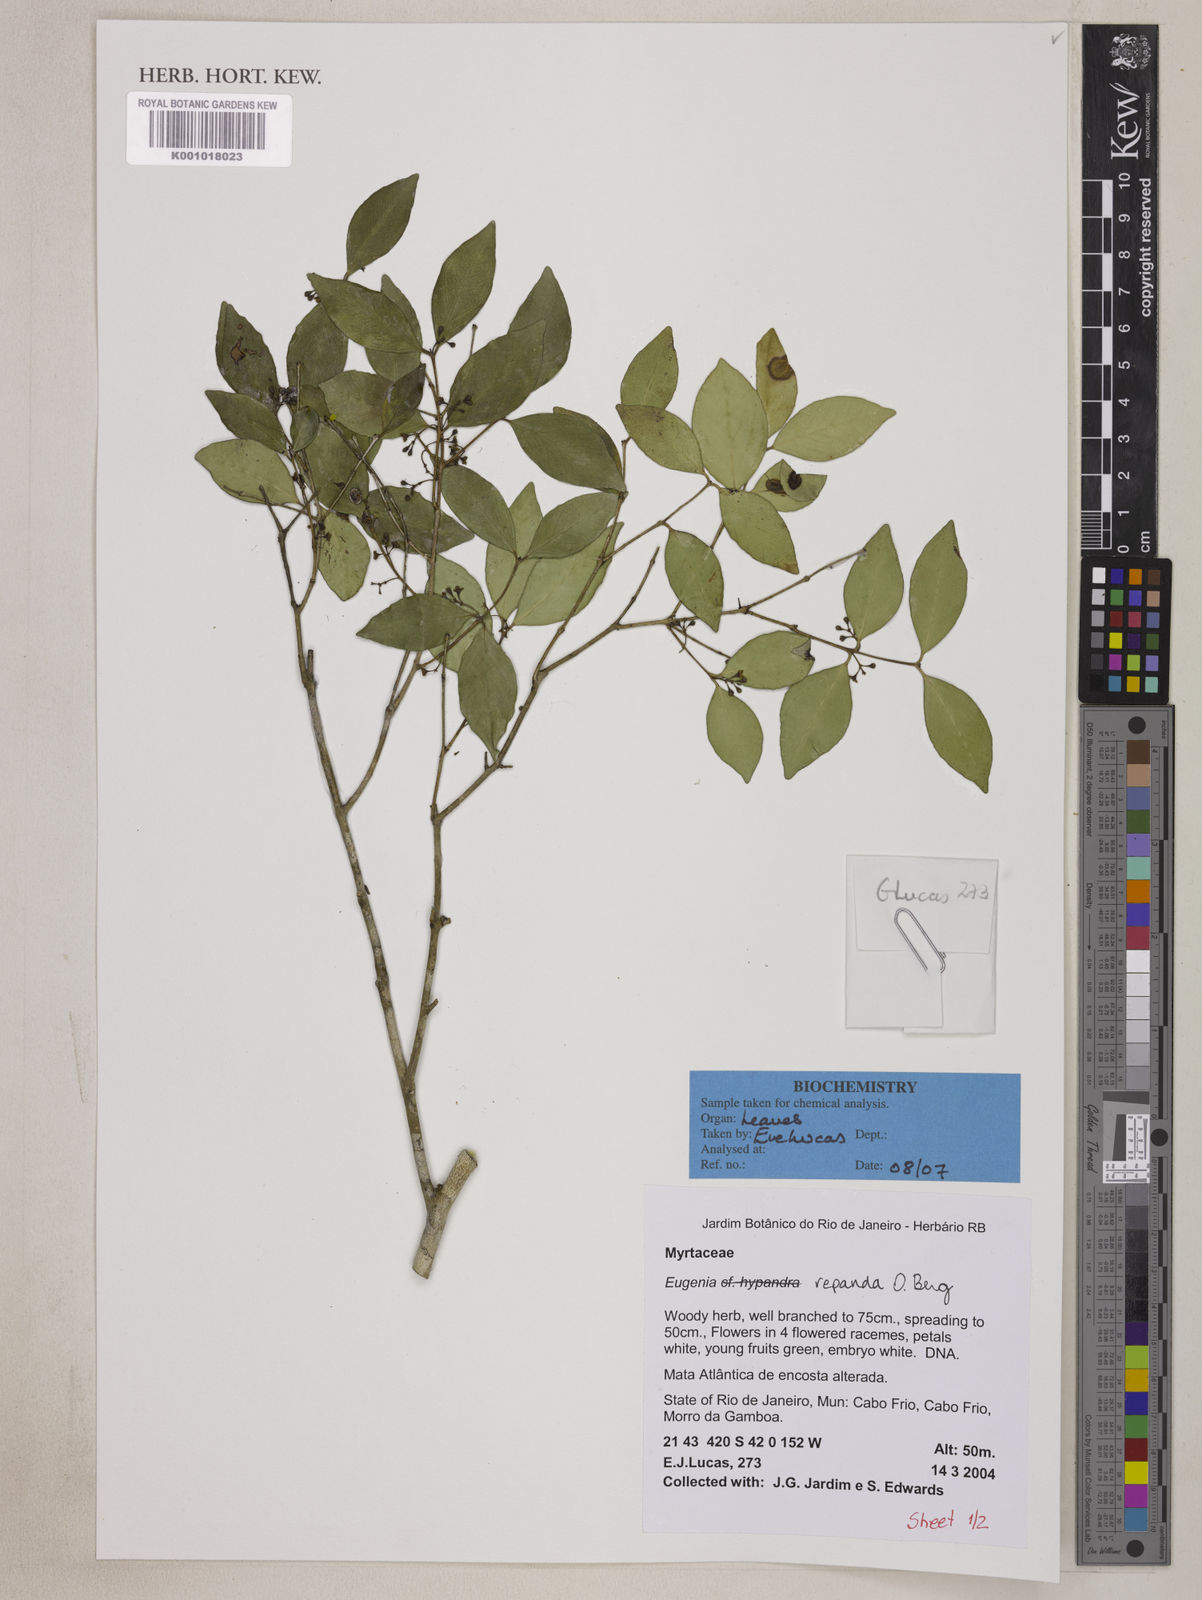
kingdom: Plantae
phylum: Tracheophyta
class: Magnoliopsida
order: Myrtales
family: Myrtaceae
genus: Eugenia
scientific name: Eugenia repanda
